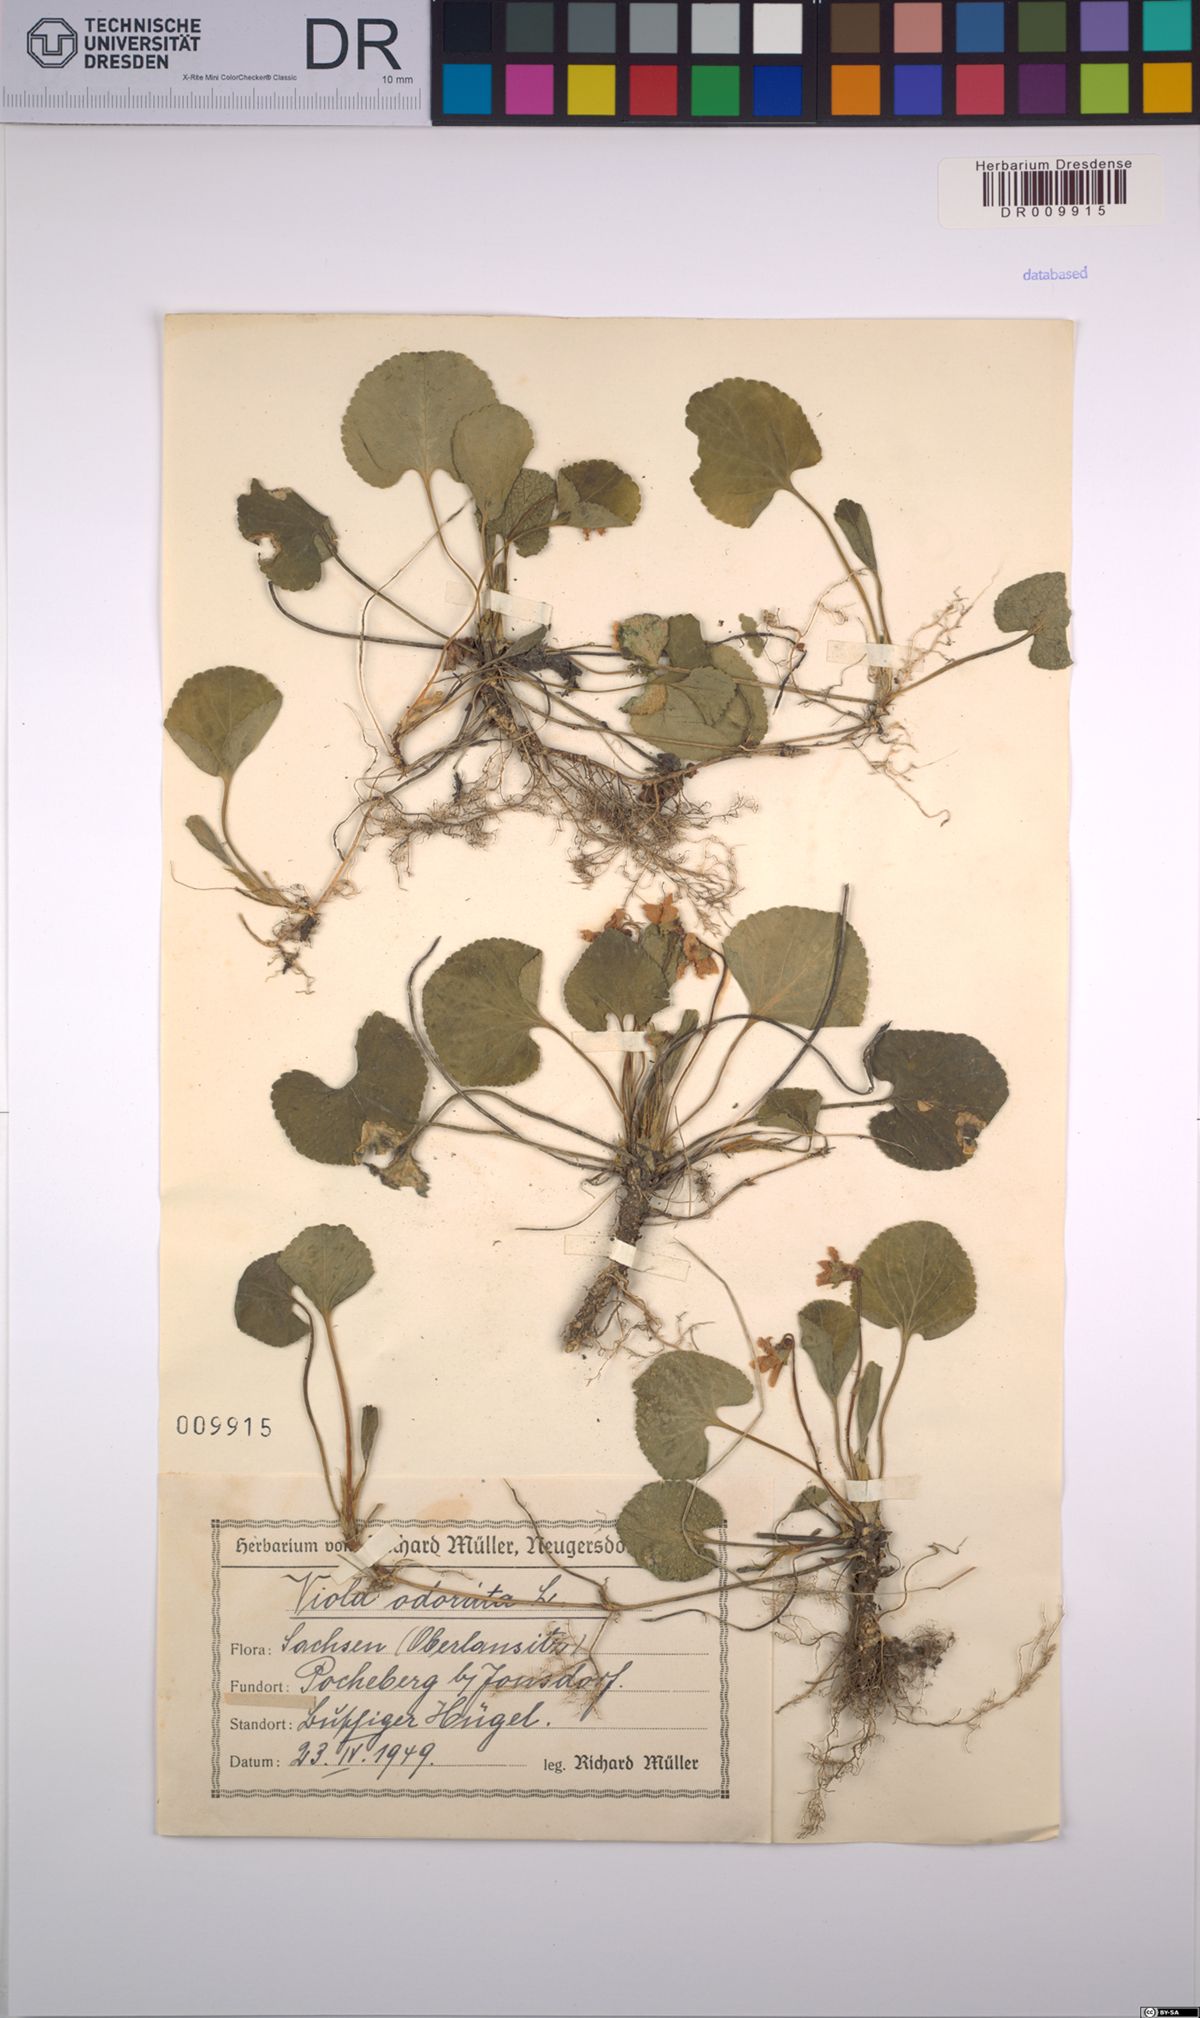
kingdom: Plantae
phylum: Tracheophyta
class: Magnoliopsida
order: Malpighiales
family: Violaceae
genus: Viola
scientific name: Viola odorata
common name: Sweet violet
